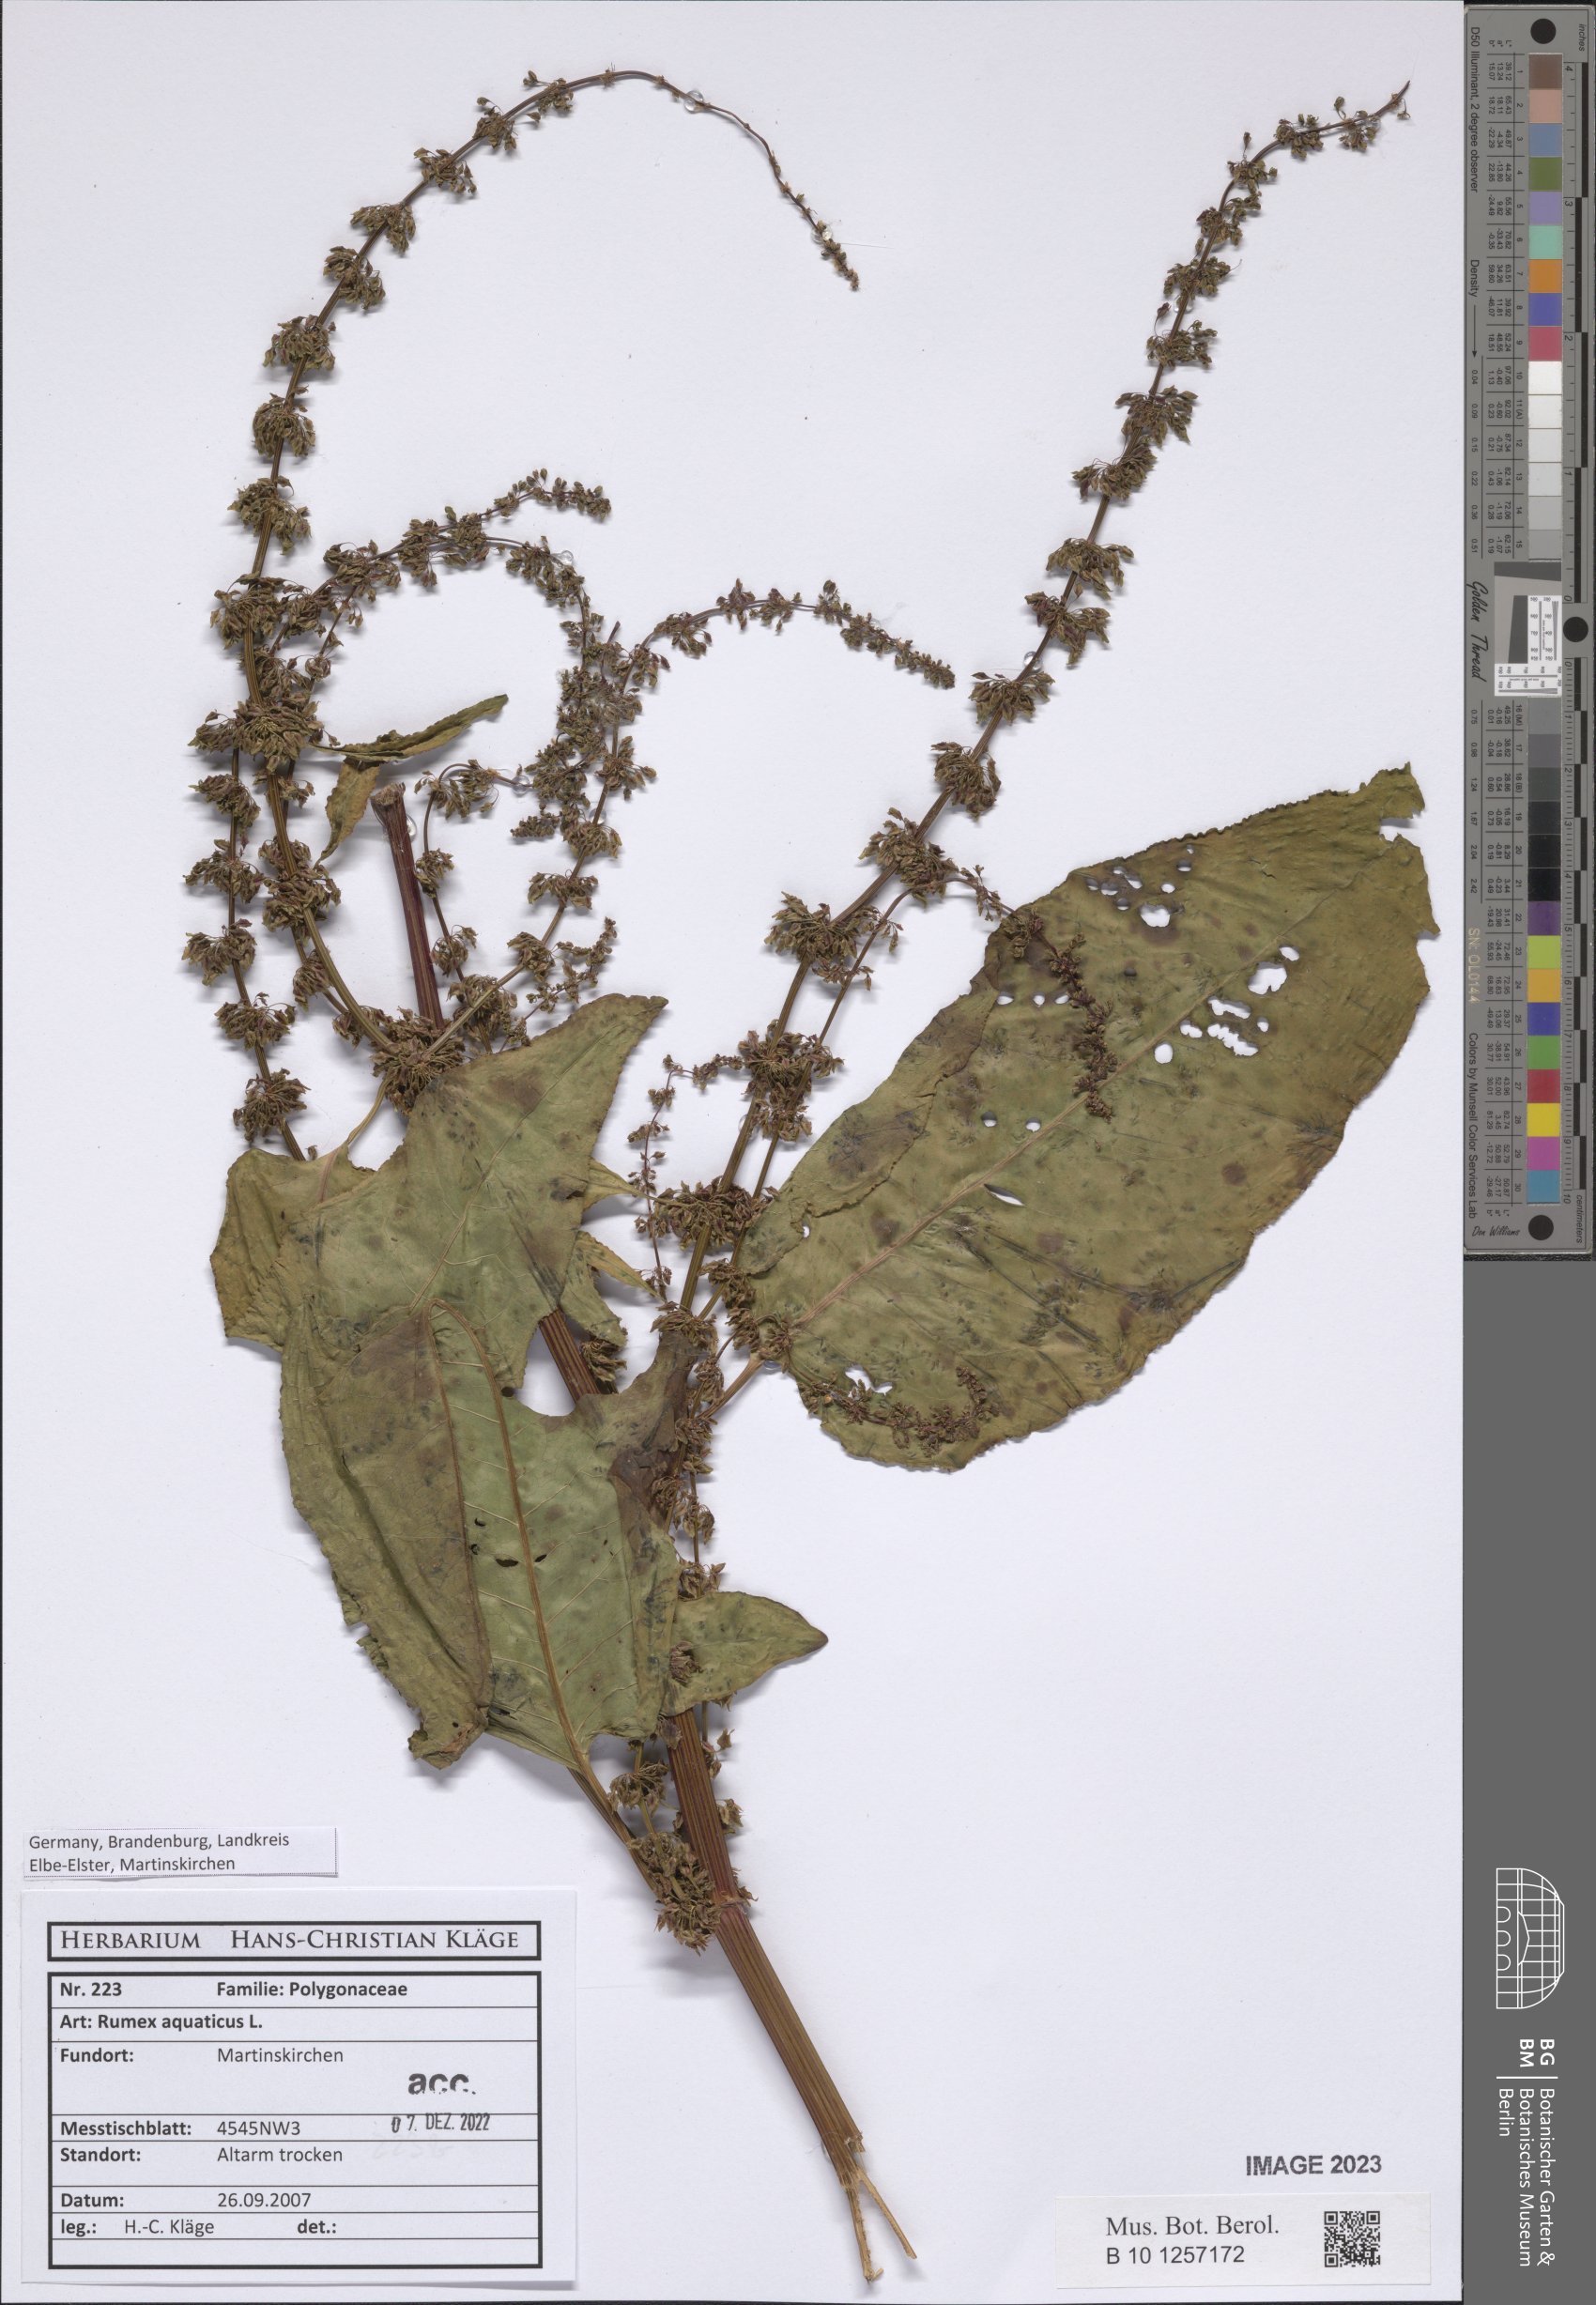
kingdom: Plantae
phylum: Tracheophyta
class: Magnoliopsida
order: Caryophyllales
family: Polygonaceae
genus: Rumex
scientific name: Rumex aquaticus
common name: Scottish dock
